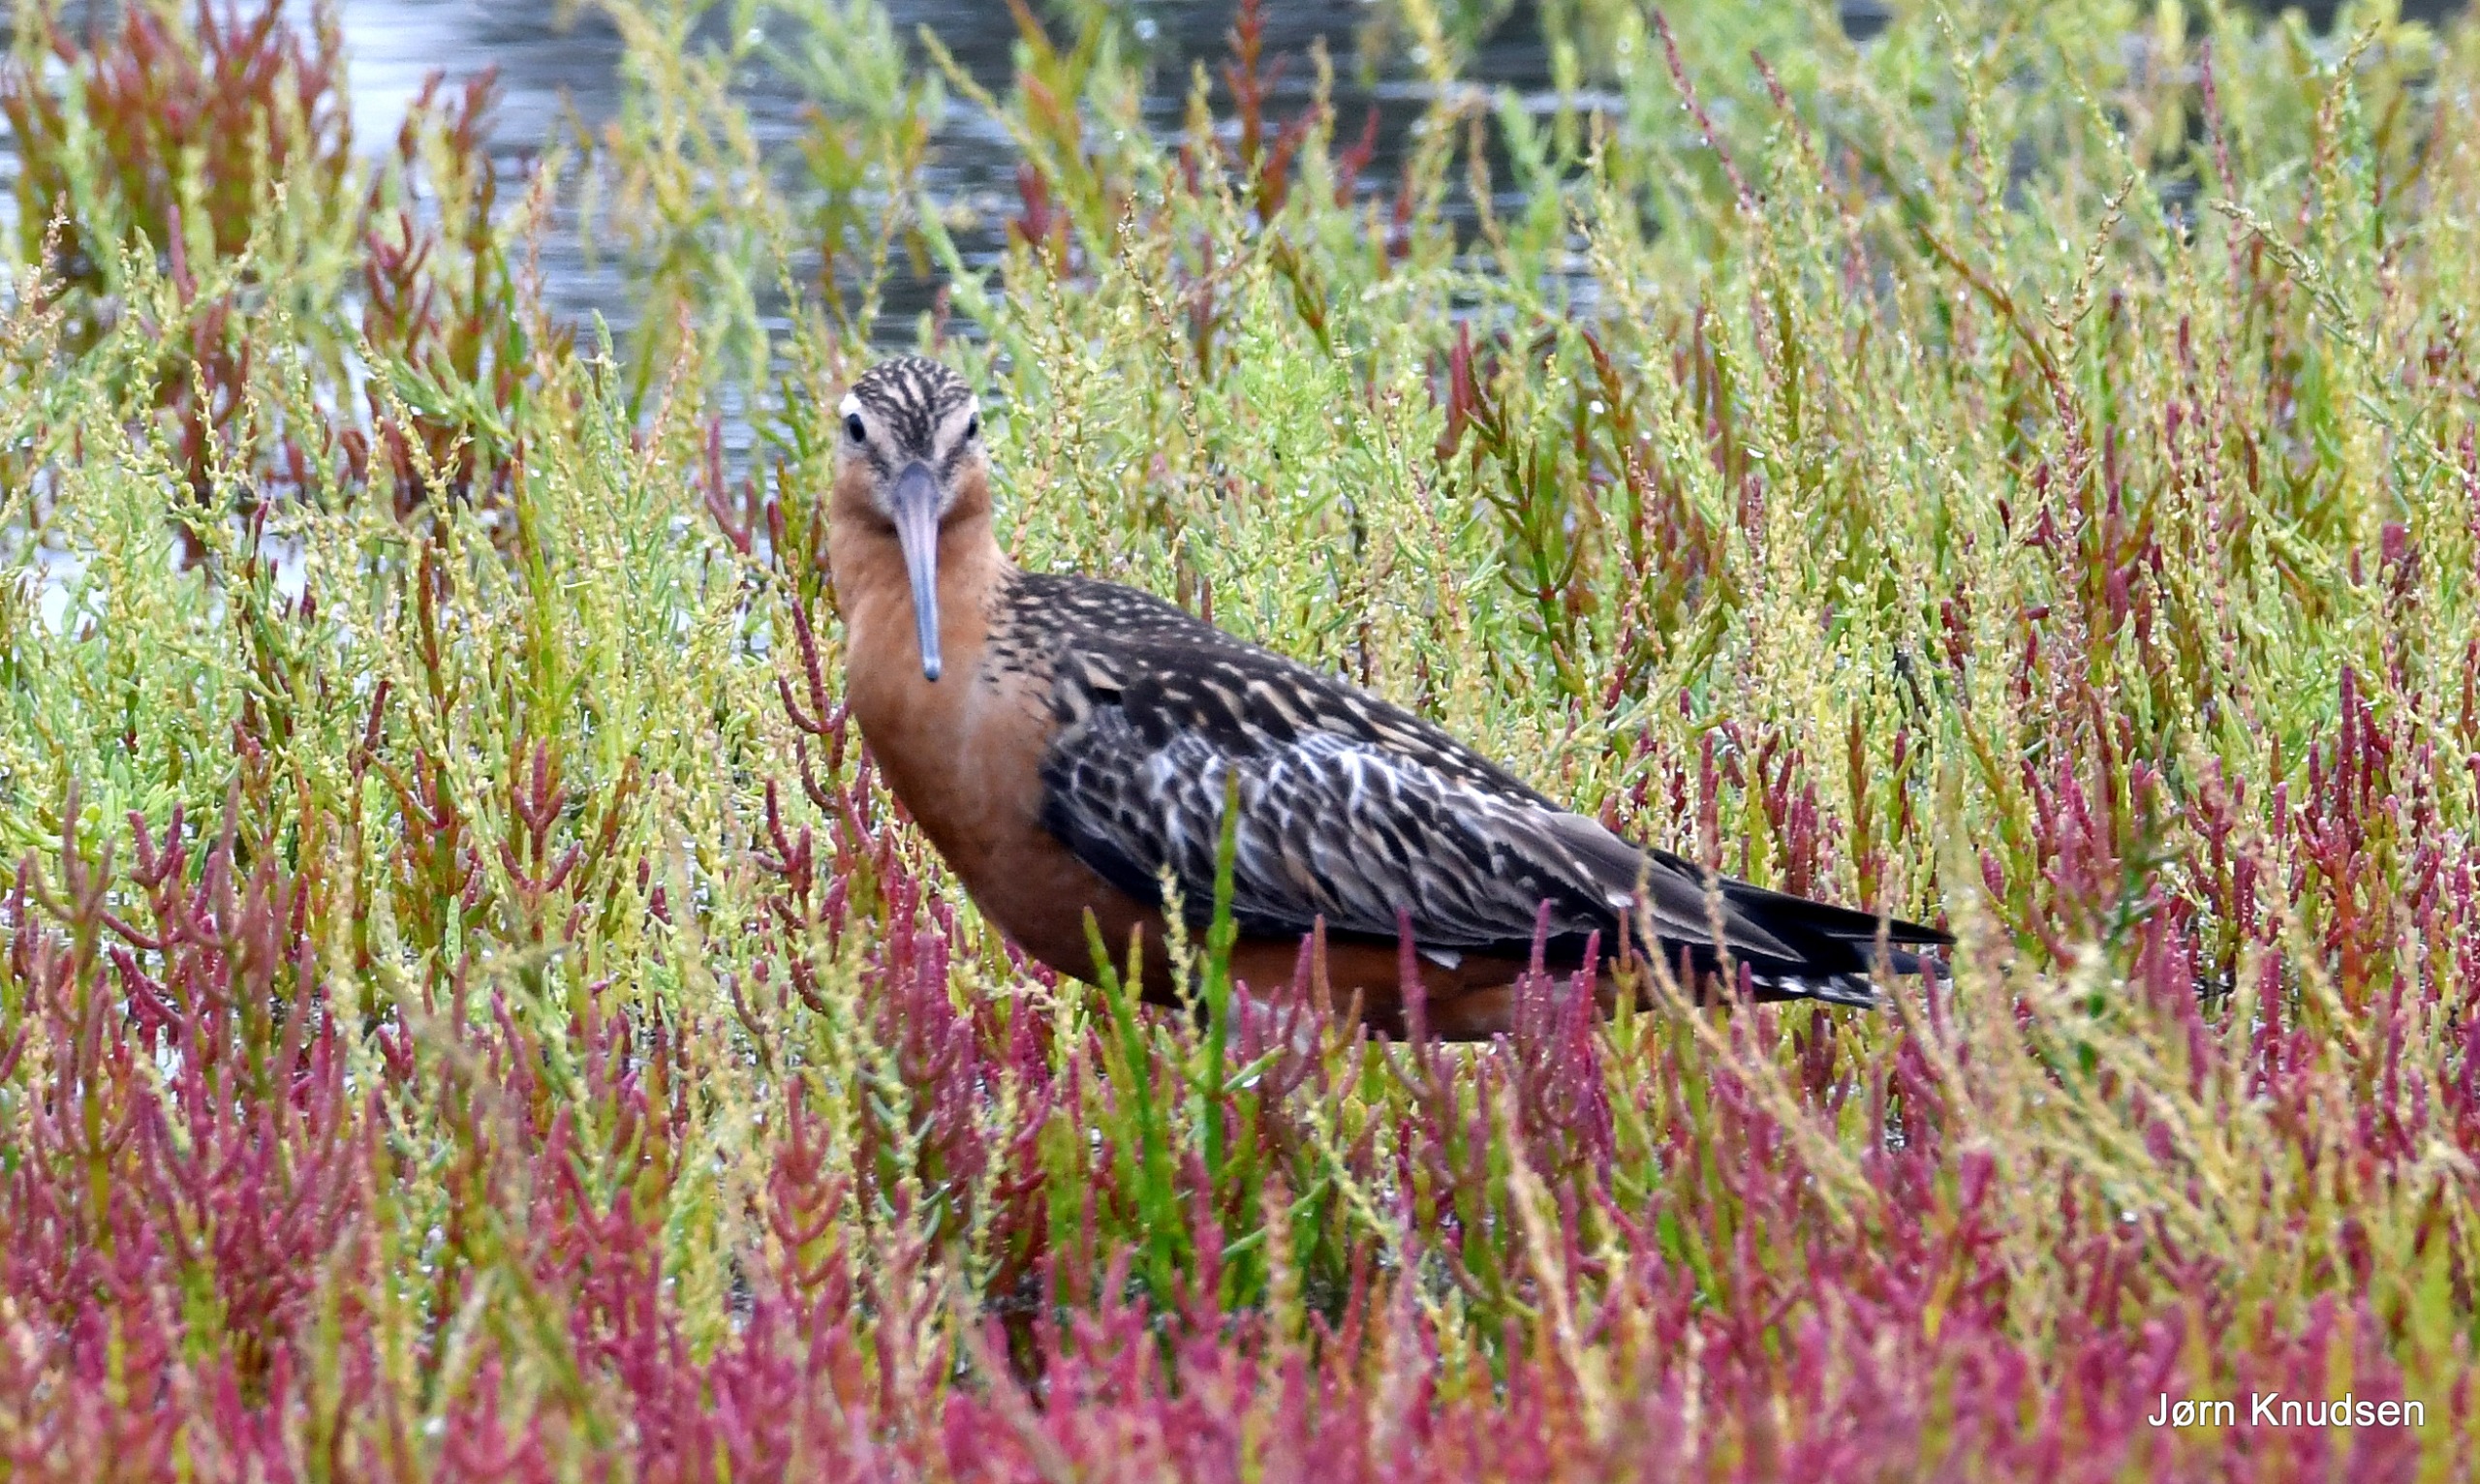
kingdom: Animalia
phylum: Chordata
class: Aves
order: Charadriiformes
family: Scolopacidae
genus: Limosa
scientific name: Limosa lapponica
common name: Lille kobbersneppe
